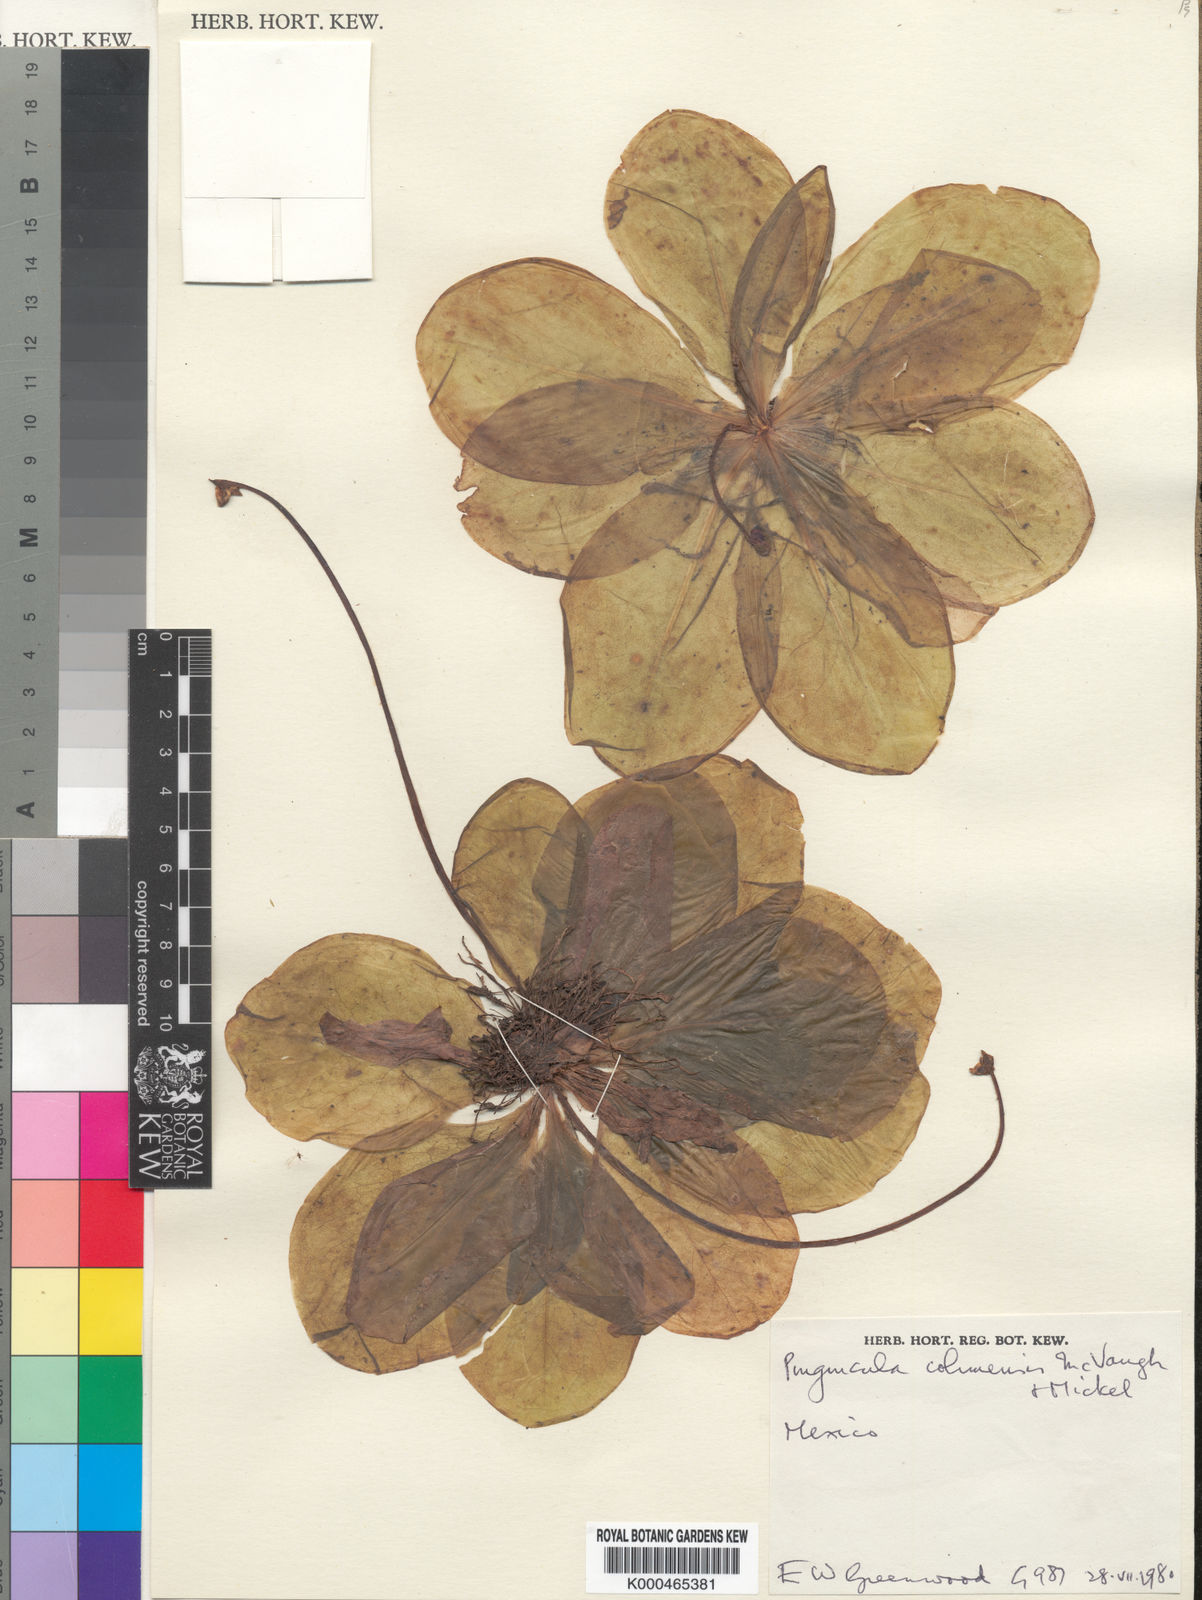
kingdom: Plantae
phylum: Tracheophyta
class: Magnoliopsida
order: Lamiales
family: Lentibulariaceae
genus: Pinguicula
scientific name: Pinguicula colimensis
